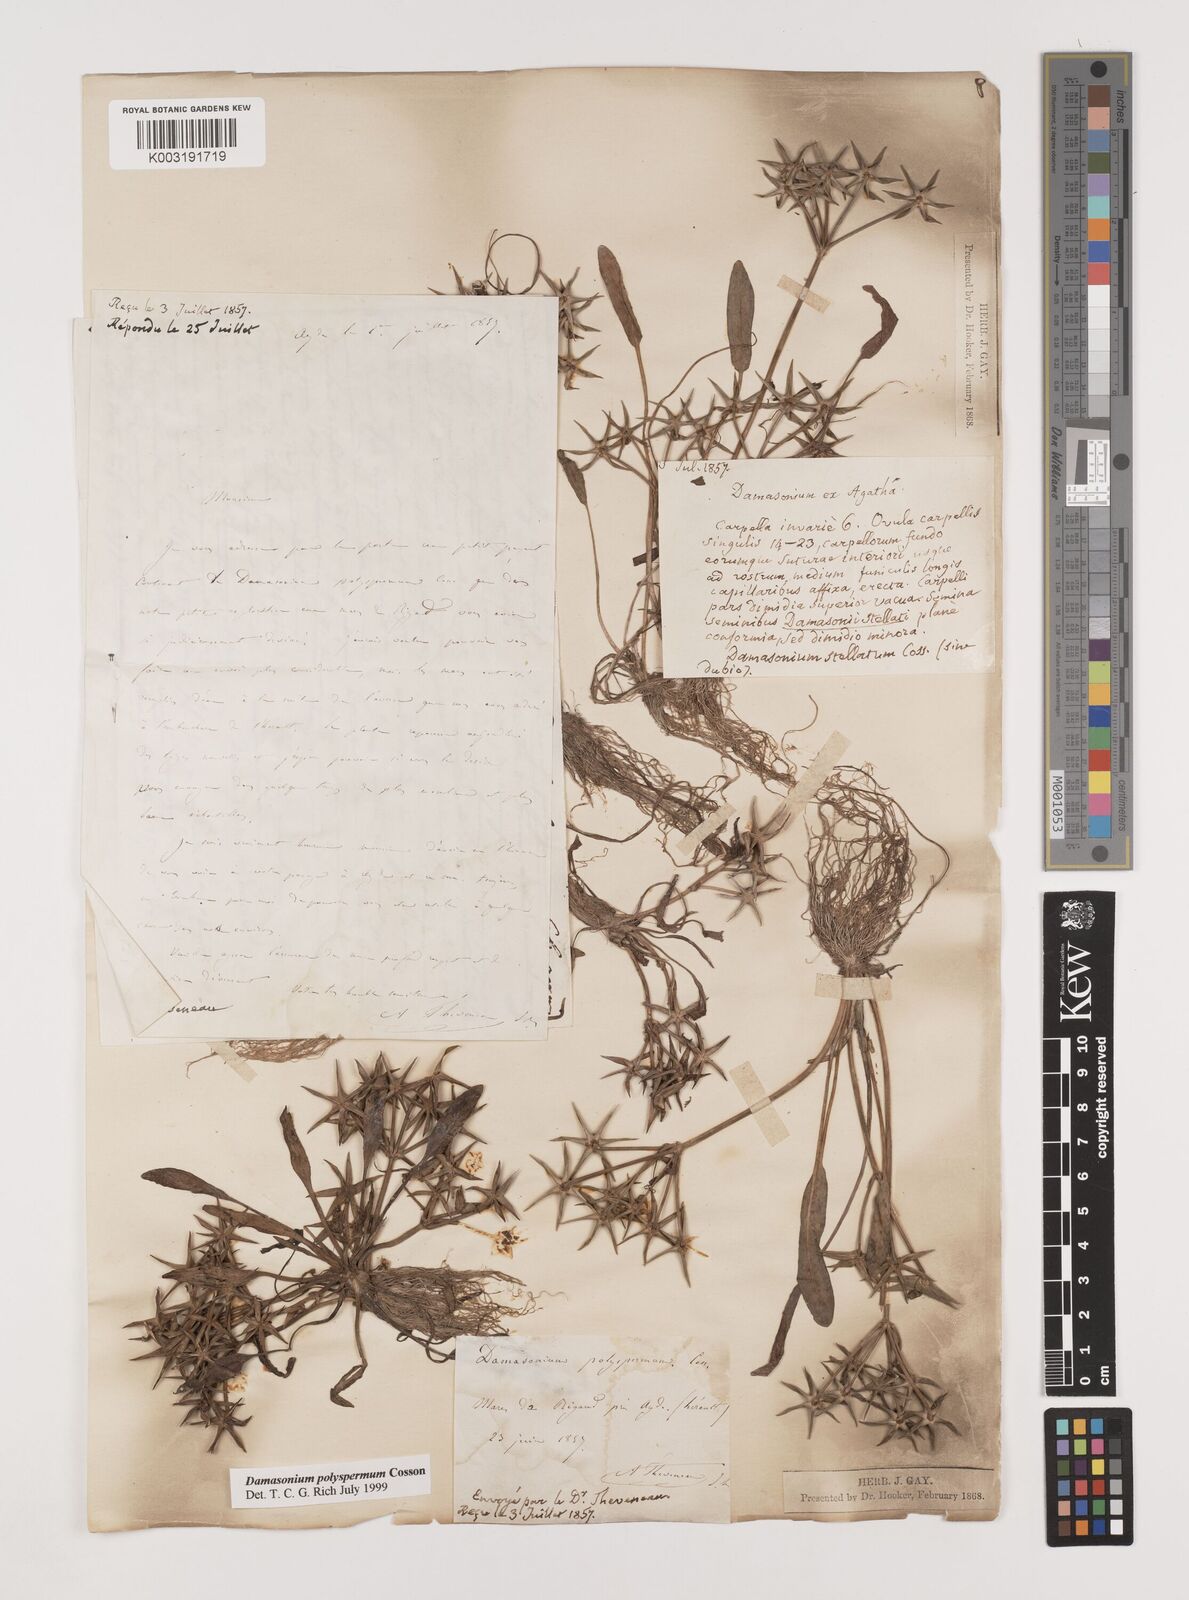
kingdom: Plantae
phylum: Tracheophyta
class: Liliopsida
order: Alismatales
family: Alismataceae
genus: Damasonium
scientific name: Damasonium polyspermum
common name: Starfruit
